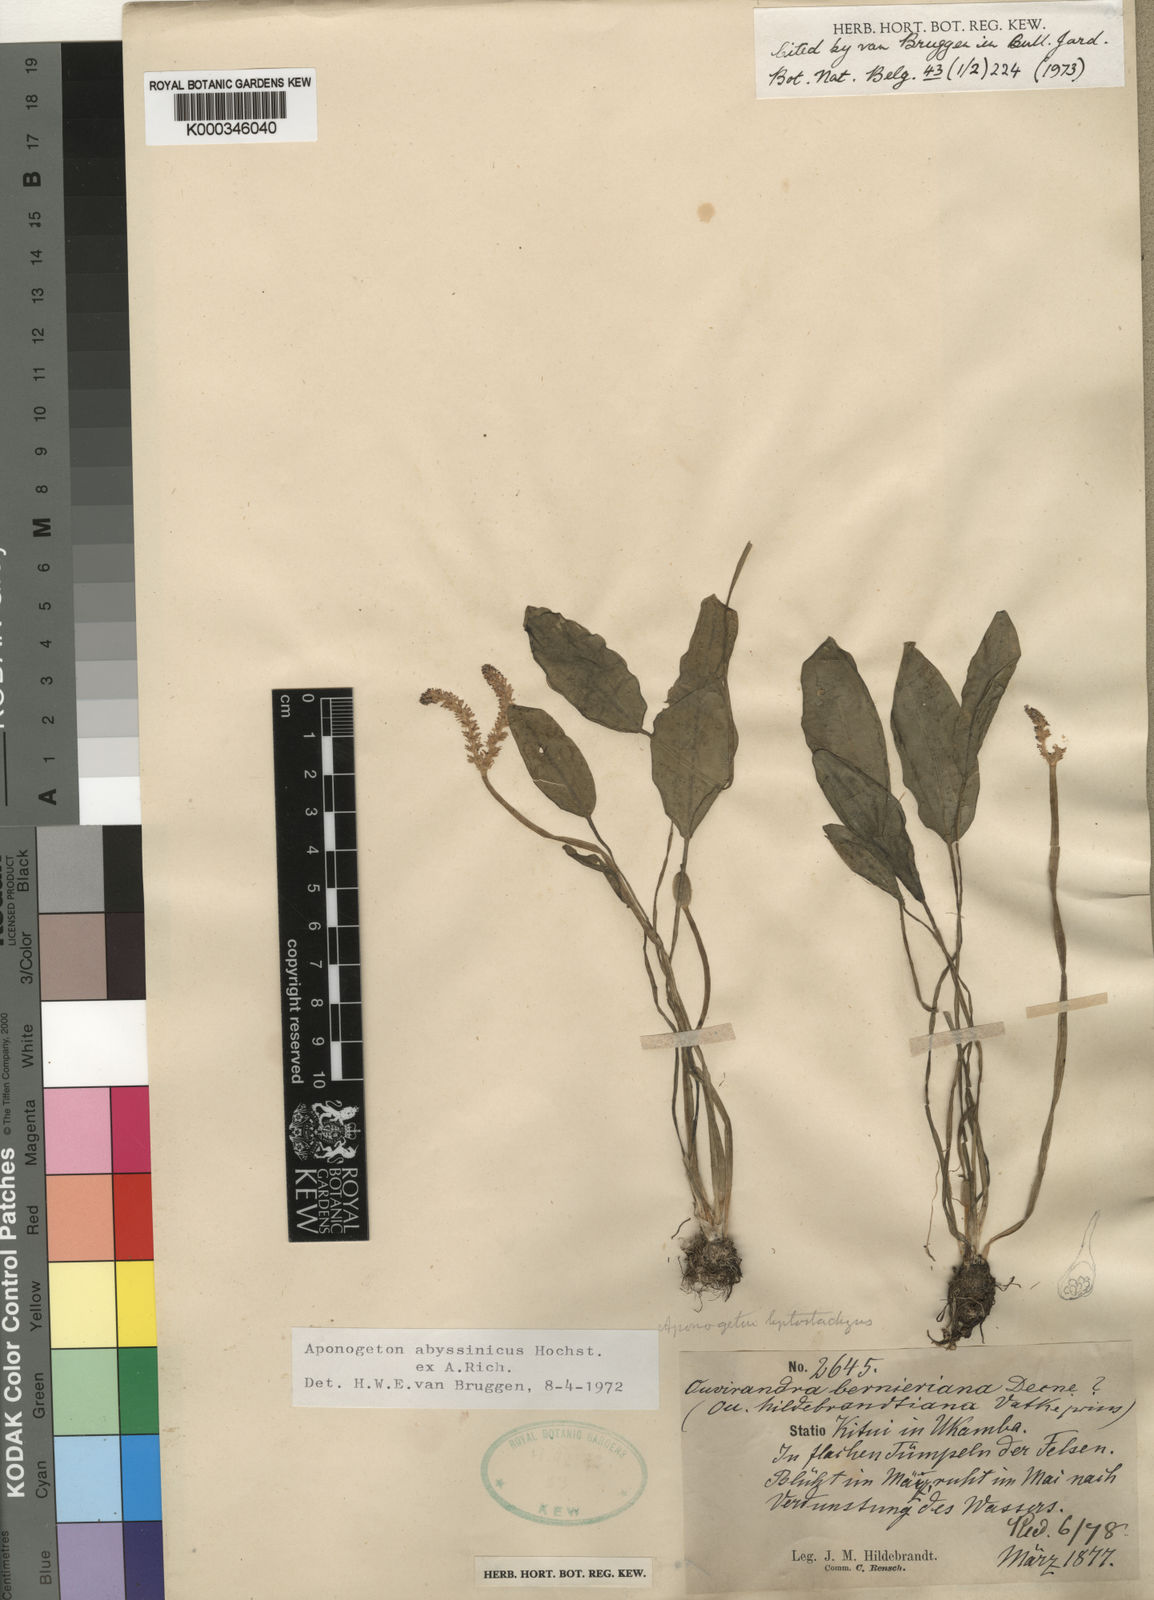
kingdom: Plantae
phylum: Tracheophyta
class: Liliopsida
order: Alismatales
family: Aponogetonaceae
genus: Aponogeton
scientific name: Aponogeton abyssinicus
